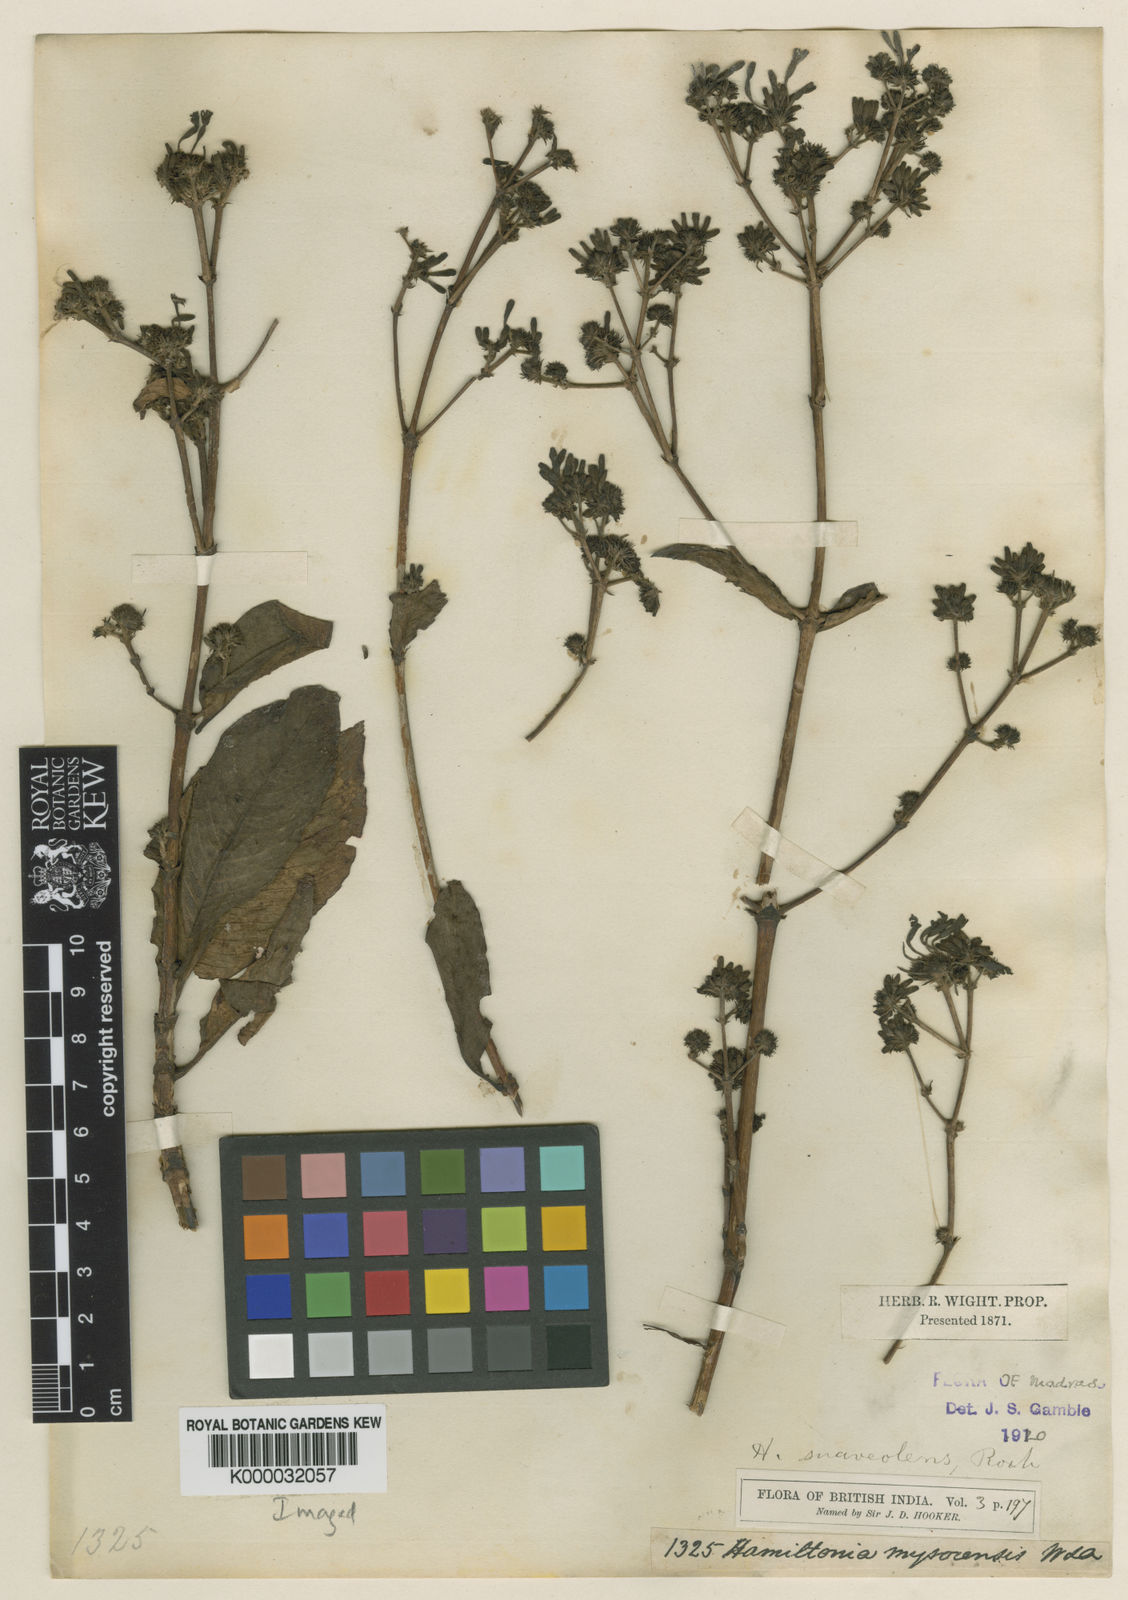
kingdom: Plantae
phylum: Tracheophyta
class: Magnoliopsida
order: Gentianales
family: Rubiaceae
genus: Spermadictyon
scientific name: Spermadictyon suaveolens
